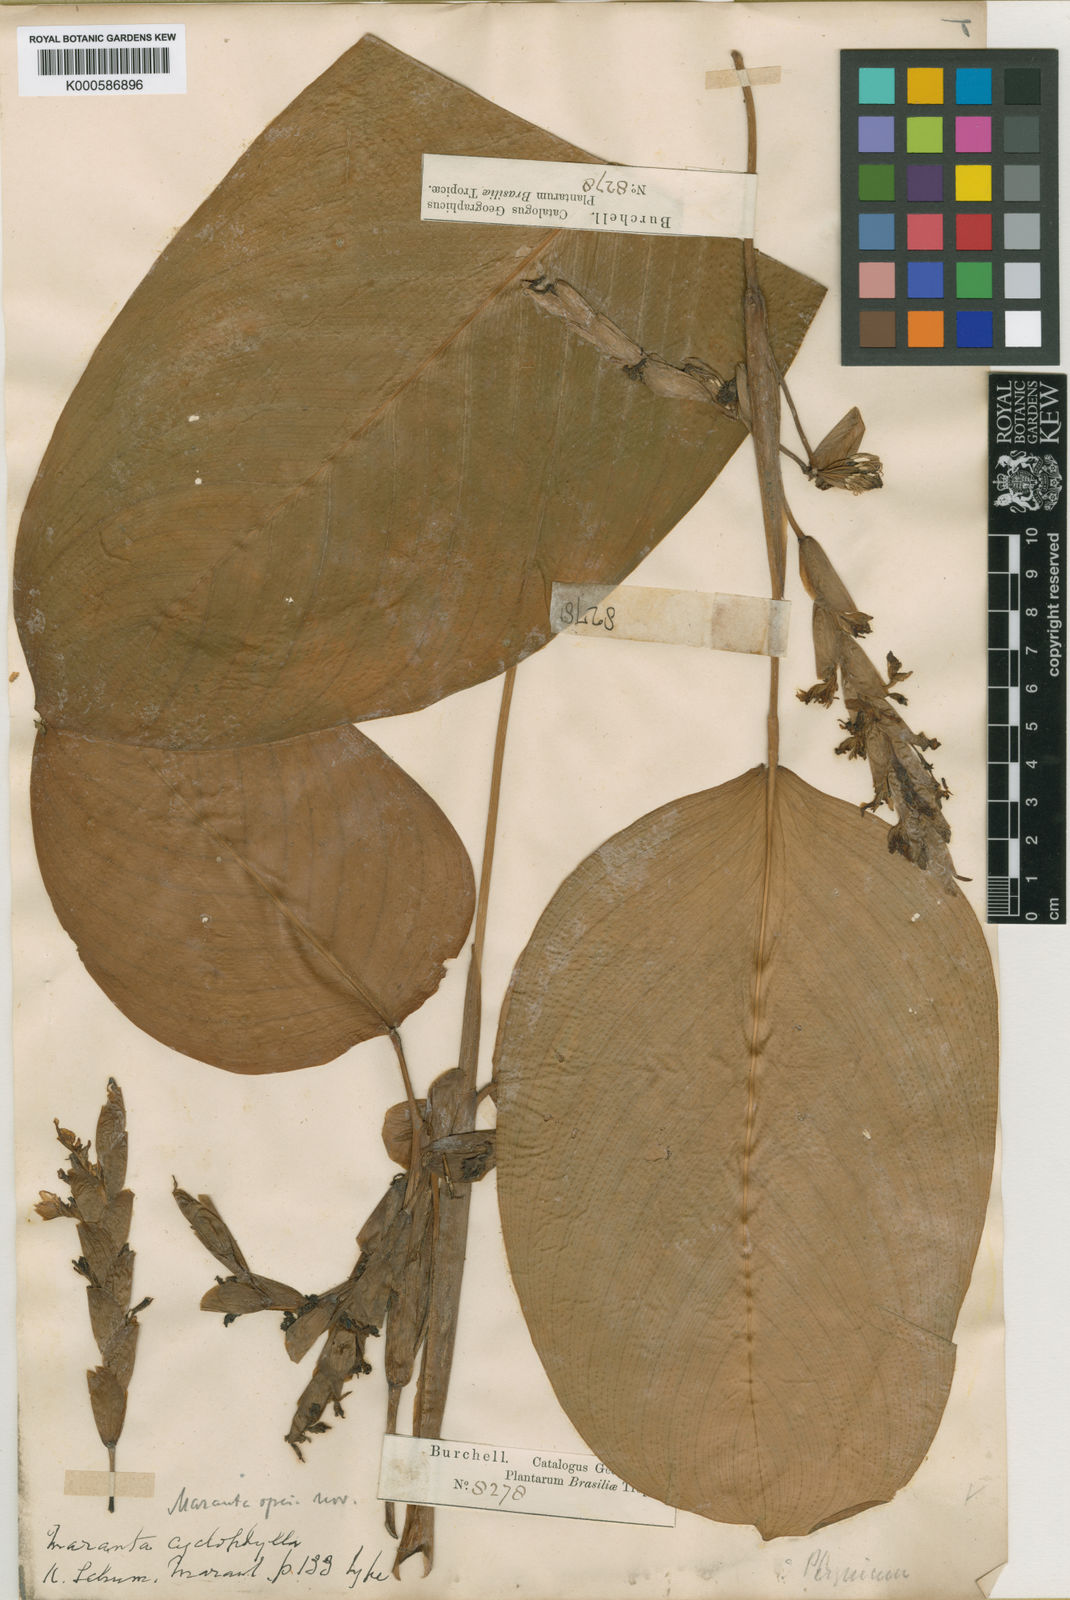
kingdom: Plantae
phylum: Tracheophyta
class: Liliopsida
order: Zingiberales
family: Marantaceae
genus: Maranta
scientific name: Maranta cyclophylla
